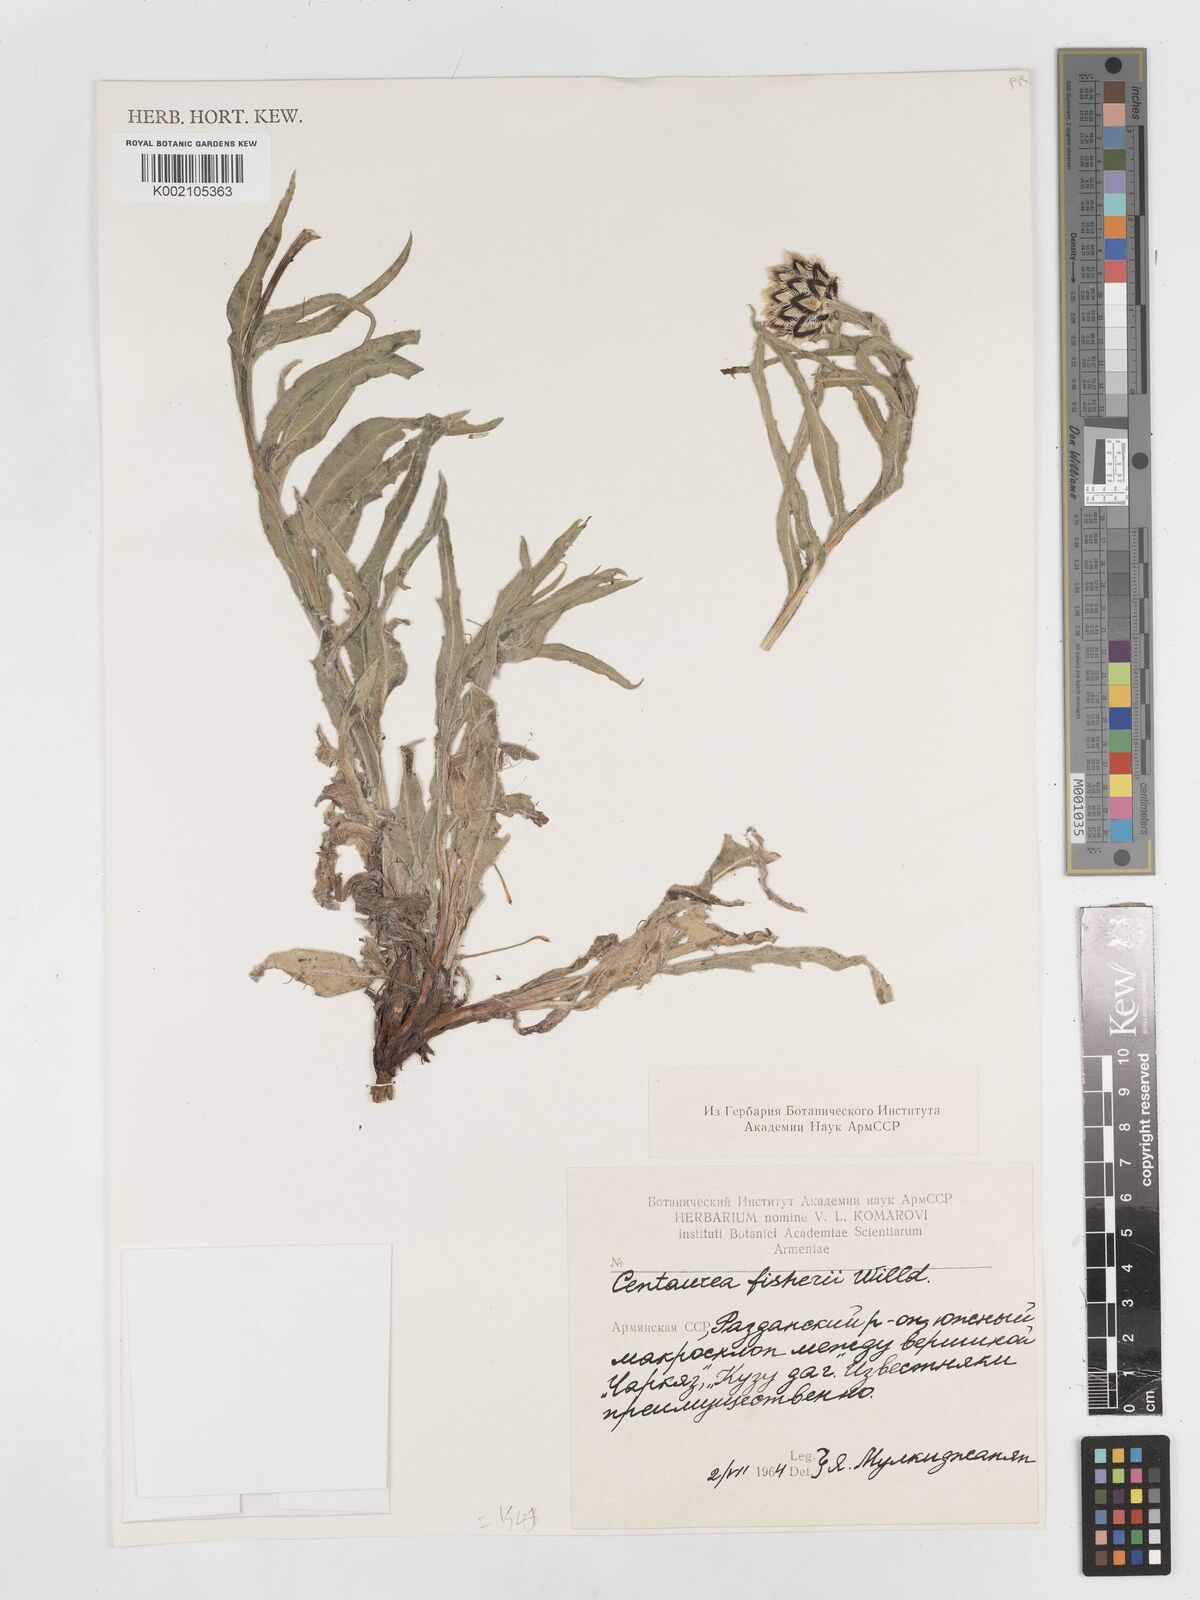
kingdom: Plantae
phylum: Tracheophyta
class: Magnoliopsida
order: Asterales
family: Asteraceae
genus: Centaurea
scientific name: Centaurea
